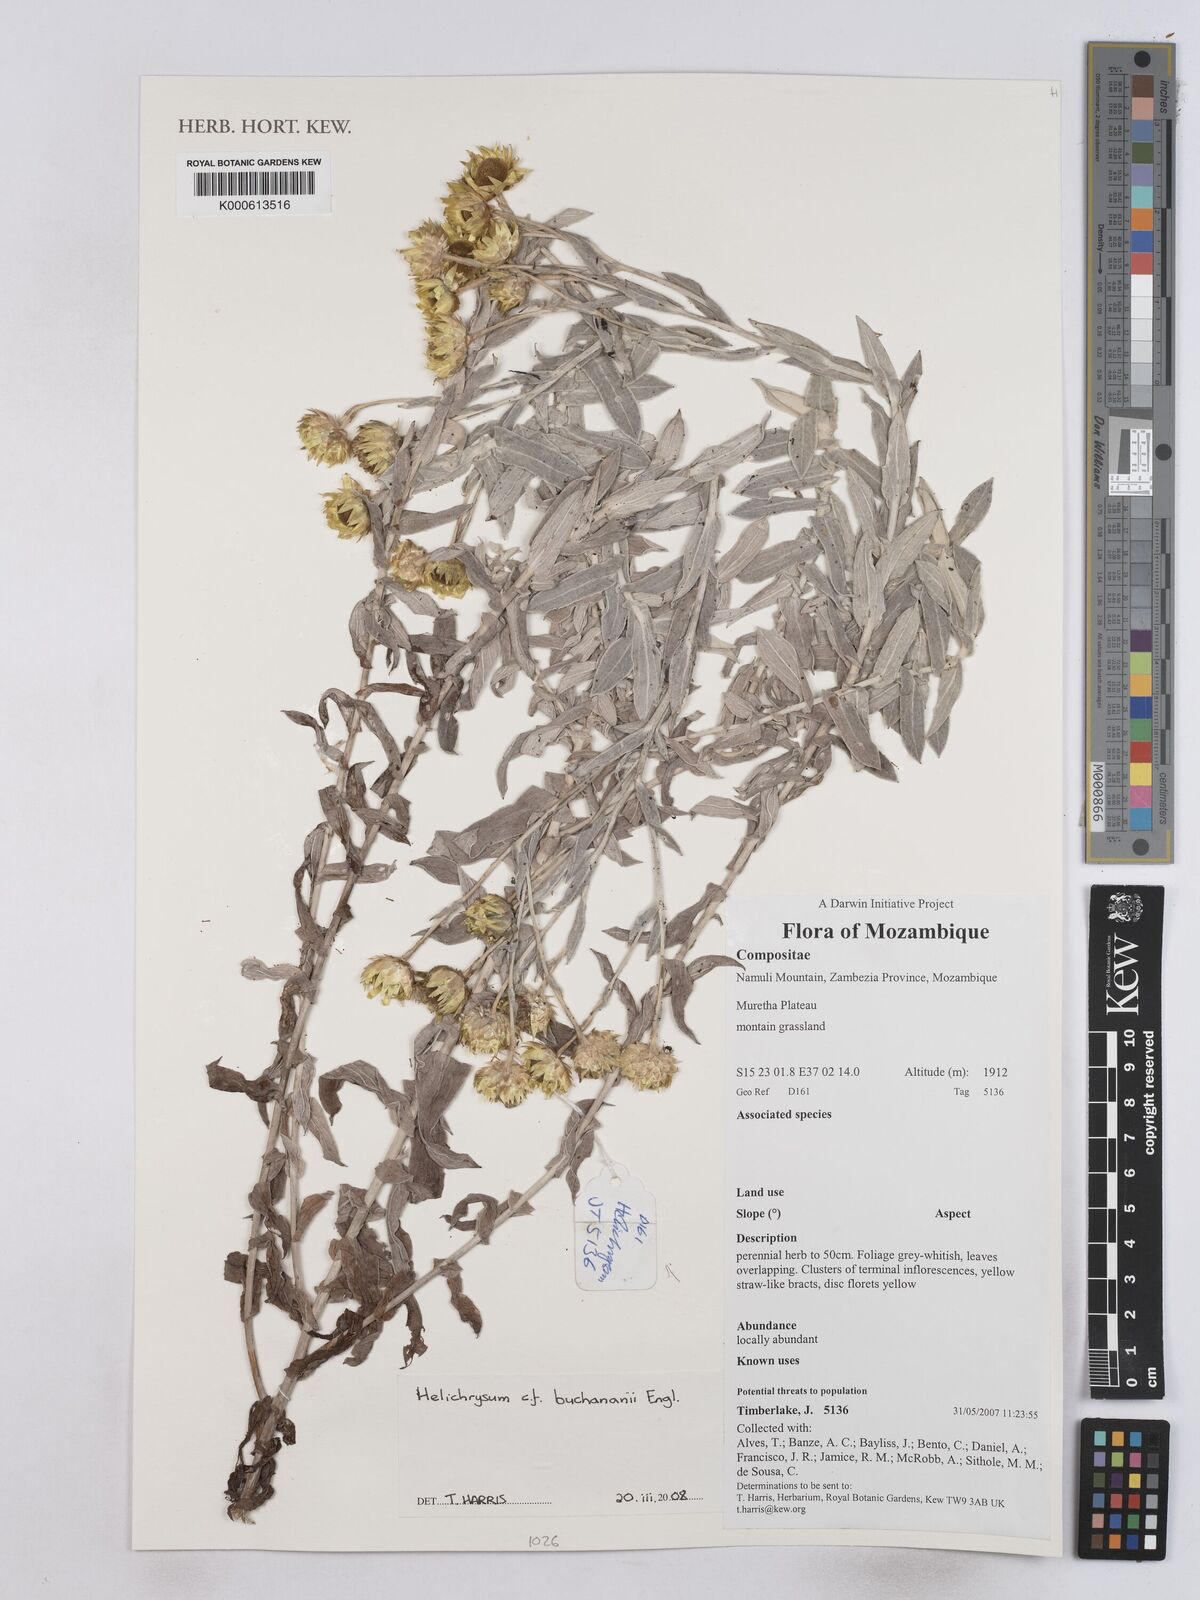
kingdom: Plantae
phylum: Tracheophyta
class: Magnoliopsida
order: Asterales
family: Asteraceae
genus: Helichrysum
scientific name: Helichrysum buchananii
